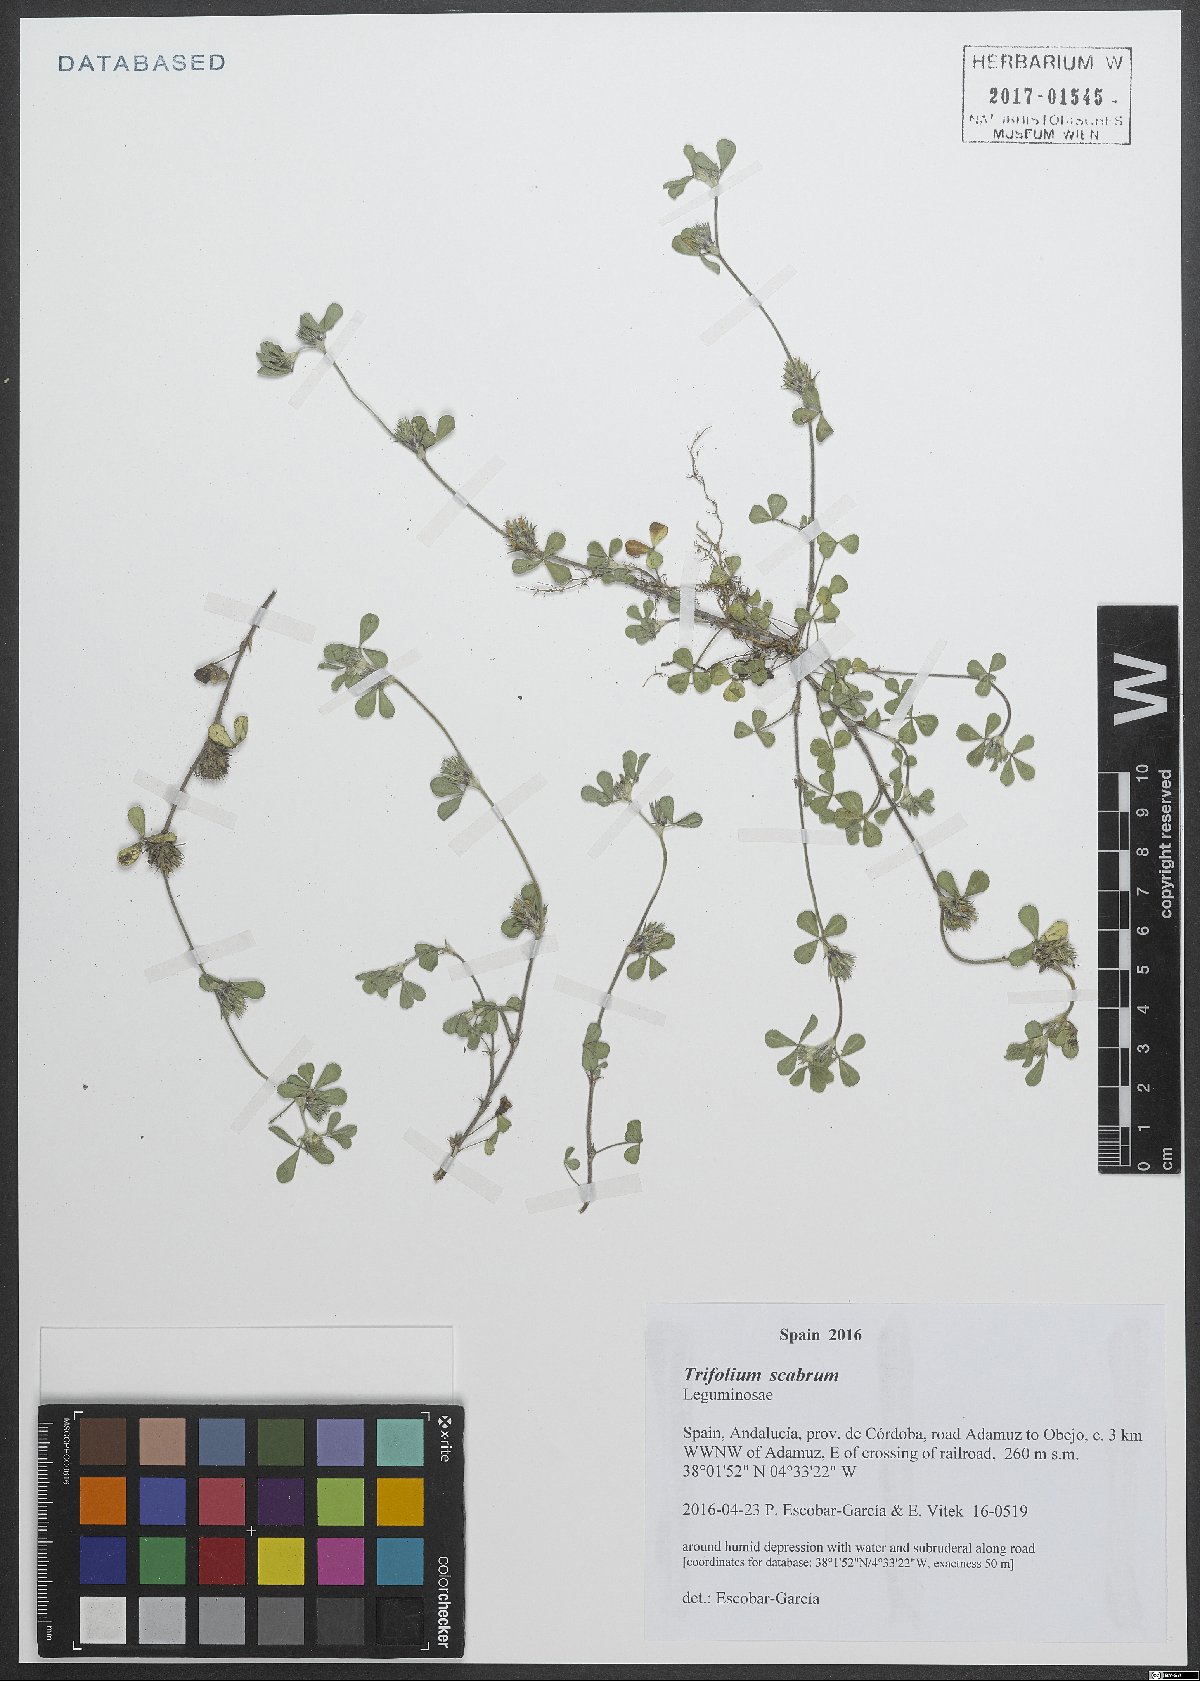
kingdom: Plantae
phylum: Tracheophyta
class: Magnoliopsida
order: Fabales
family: Fabaceae
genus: Trifolium
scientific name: Trifolium scabrum
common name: Rough clover
